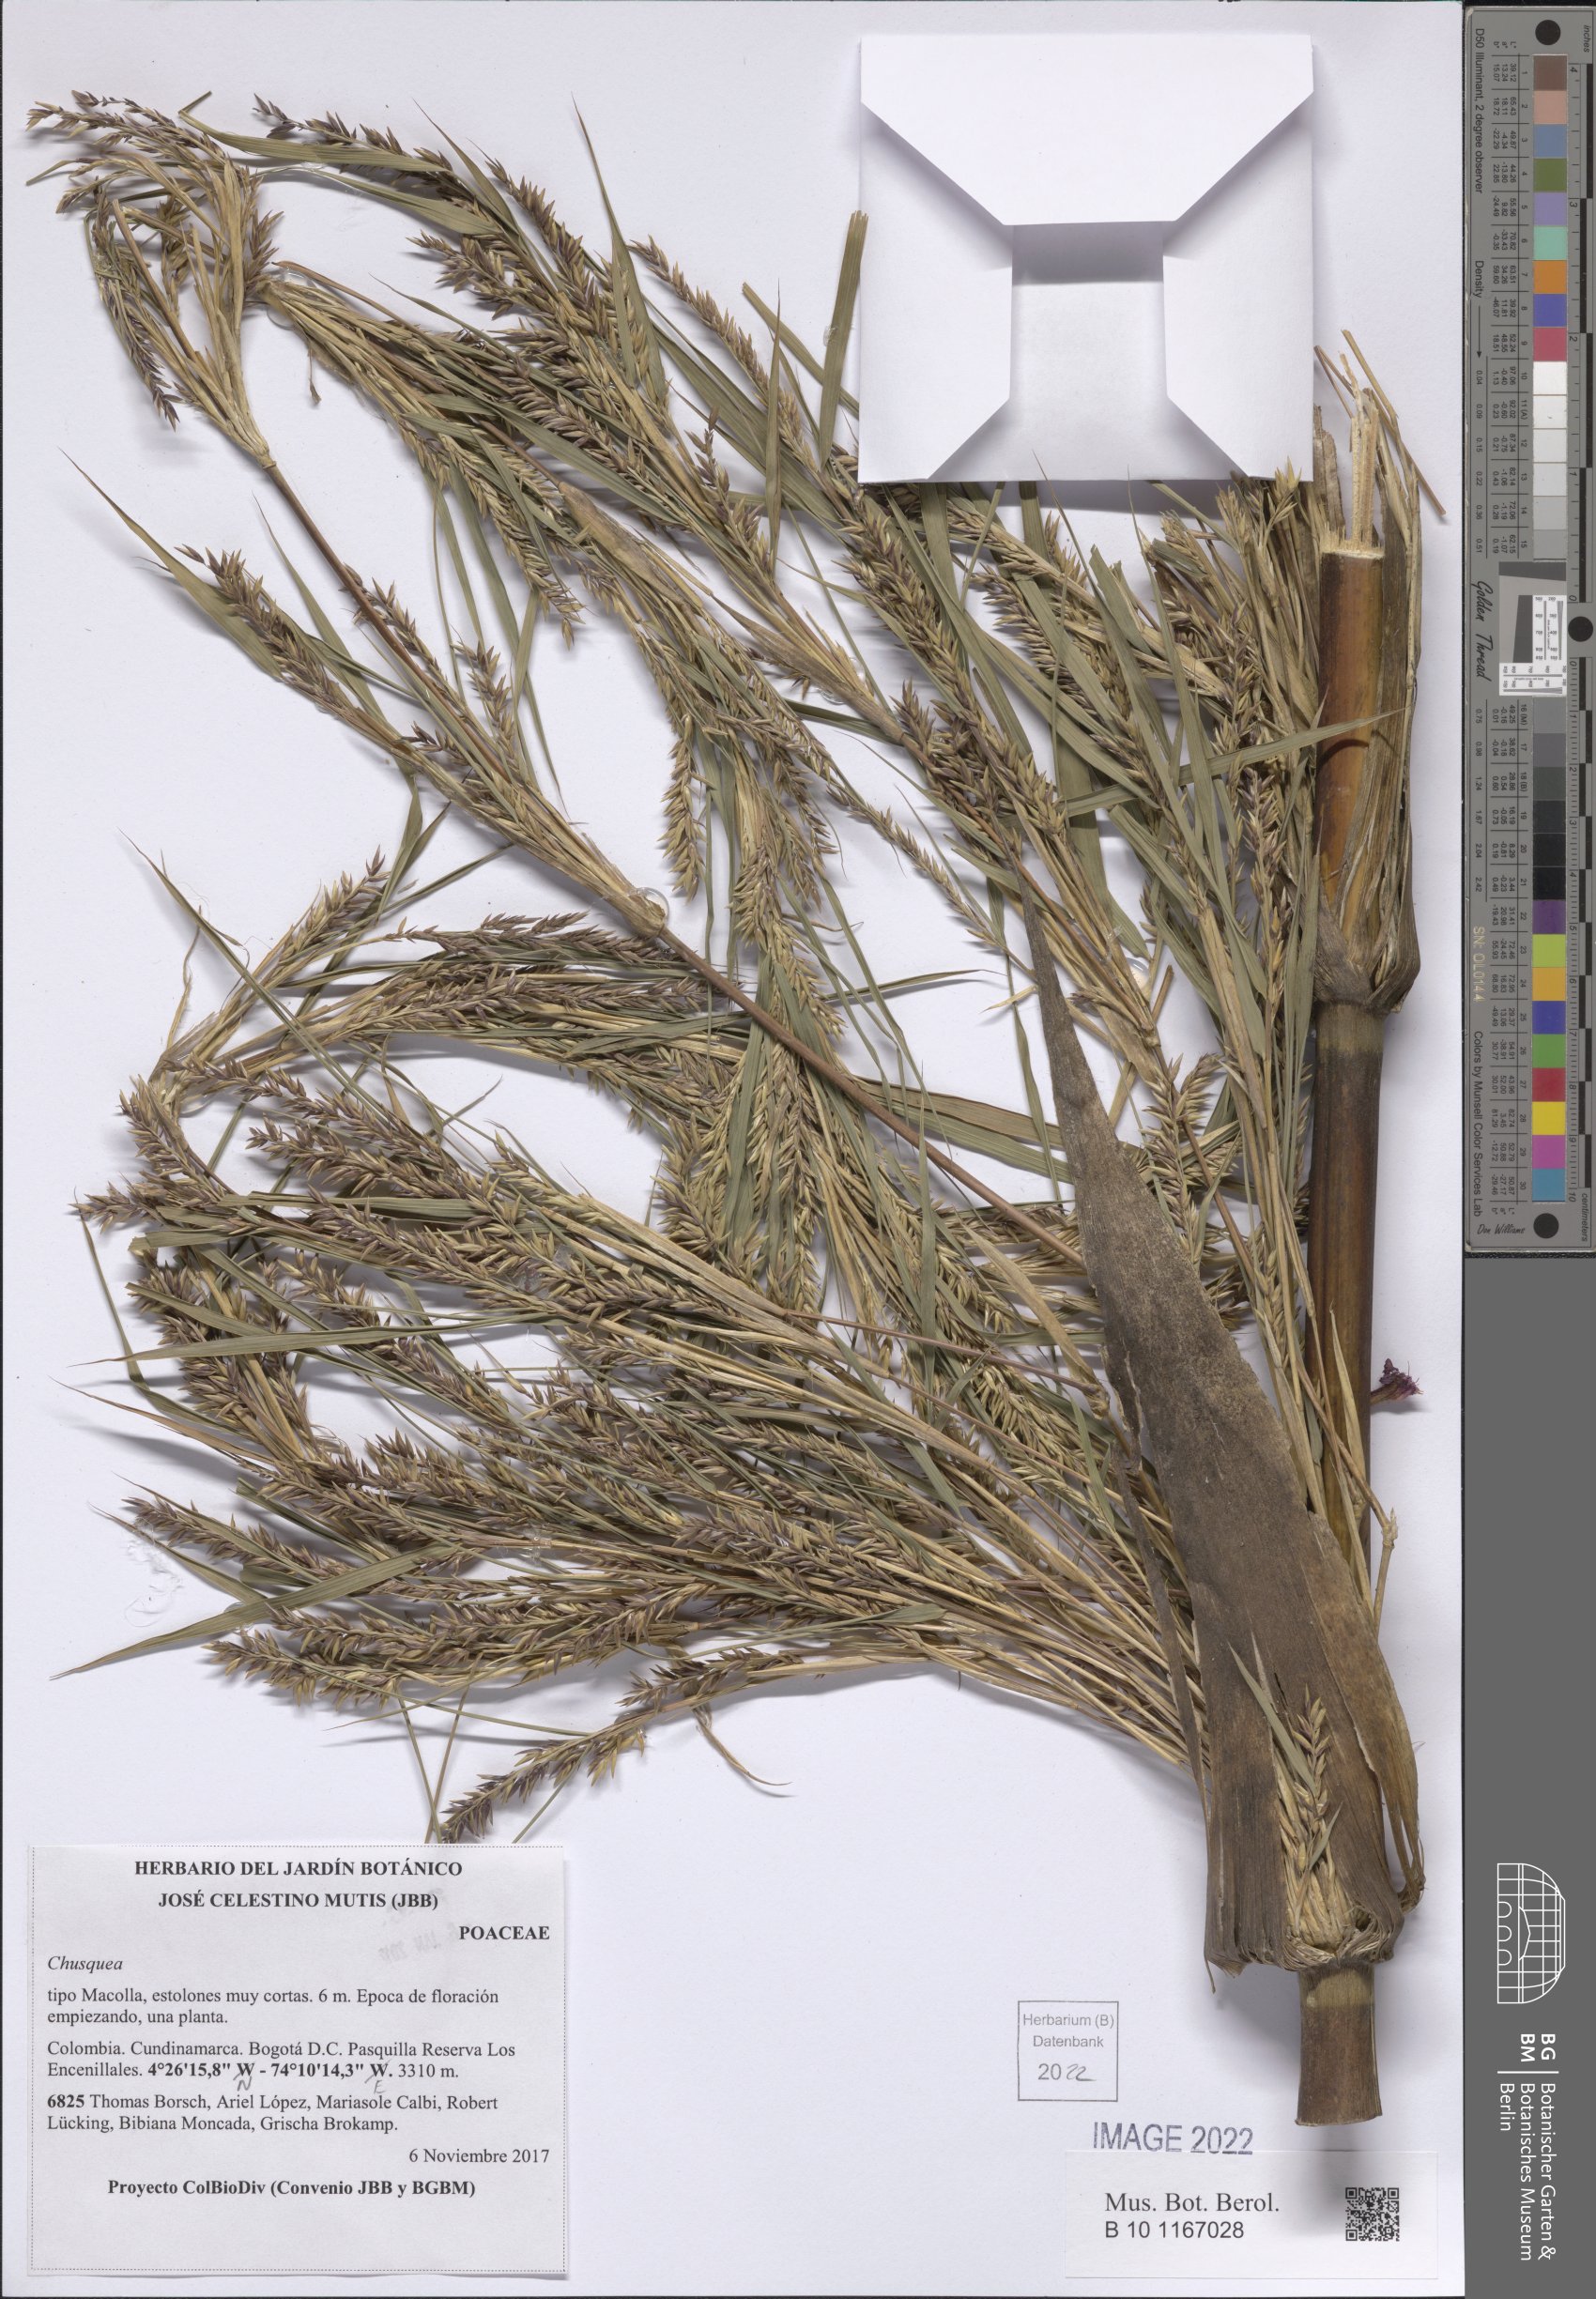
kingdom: Plantae
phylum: Tracheophyta
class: Liliopsida
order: Poales
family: Poaceae
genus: Chusquea
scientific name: Chusquea
